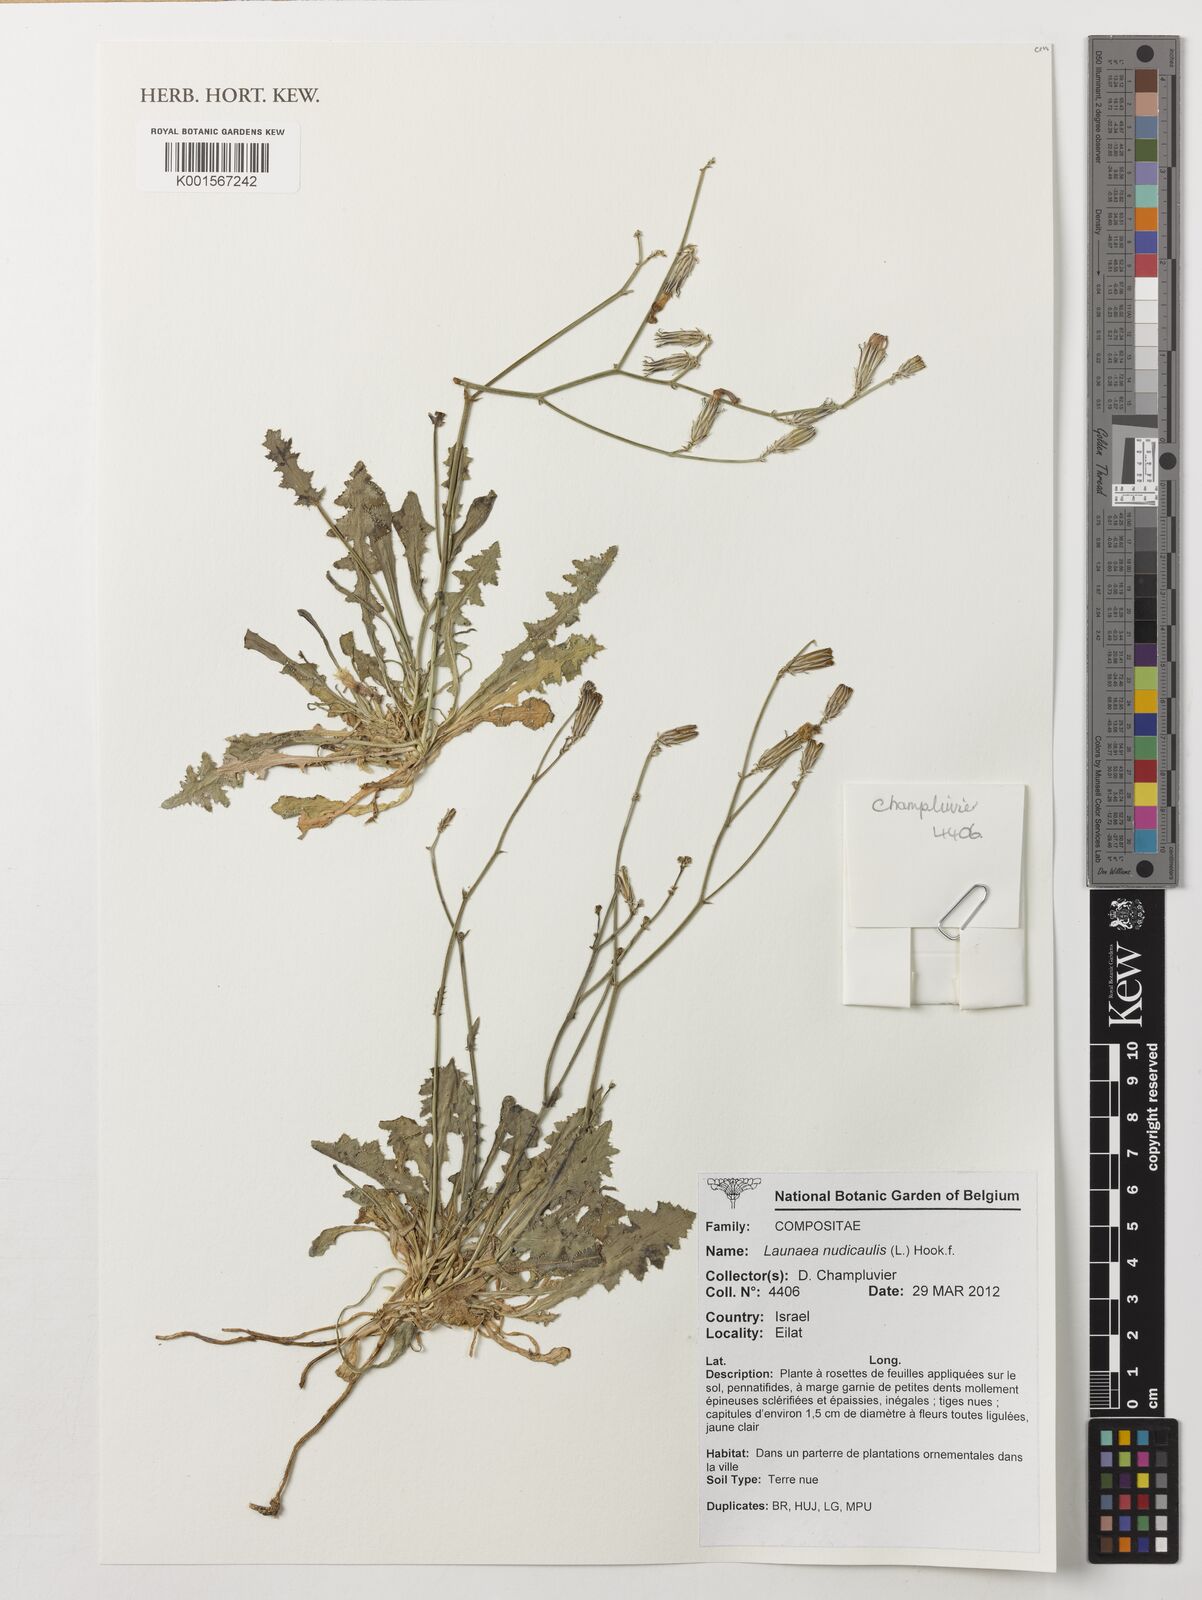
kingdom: Plantae
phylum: Tracheophyta
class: Magnoliopsida
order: Asterales
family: Asteraceae
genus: Launaea
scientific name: Launaea nudicaulis
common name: Naked launaea
